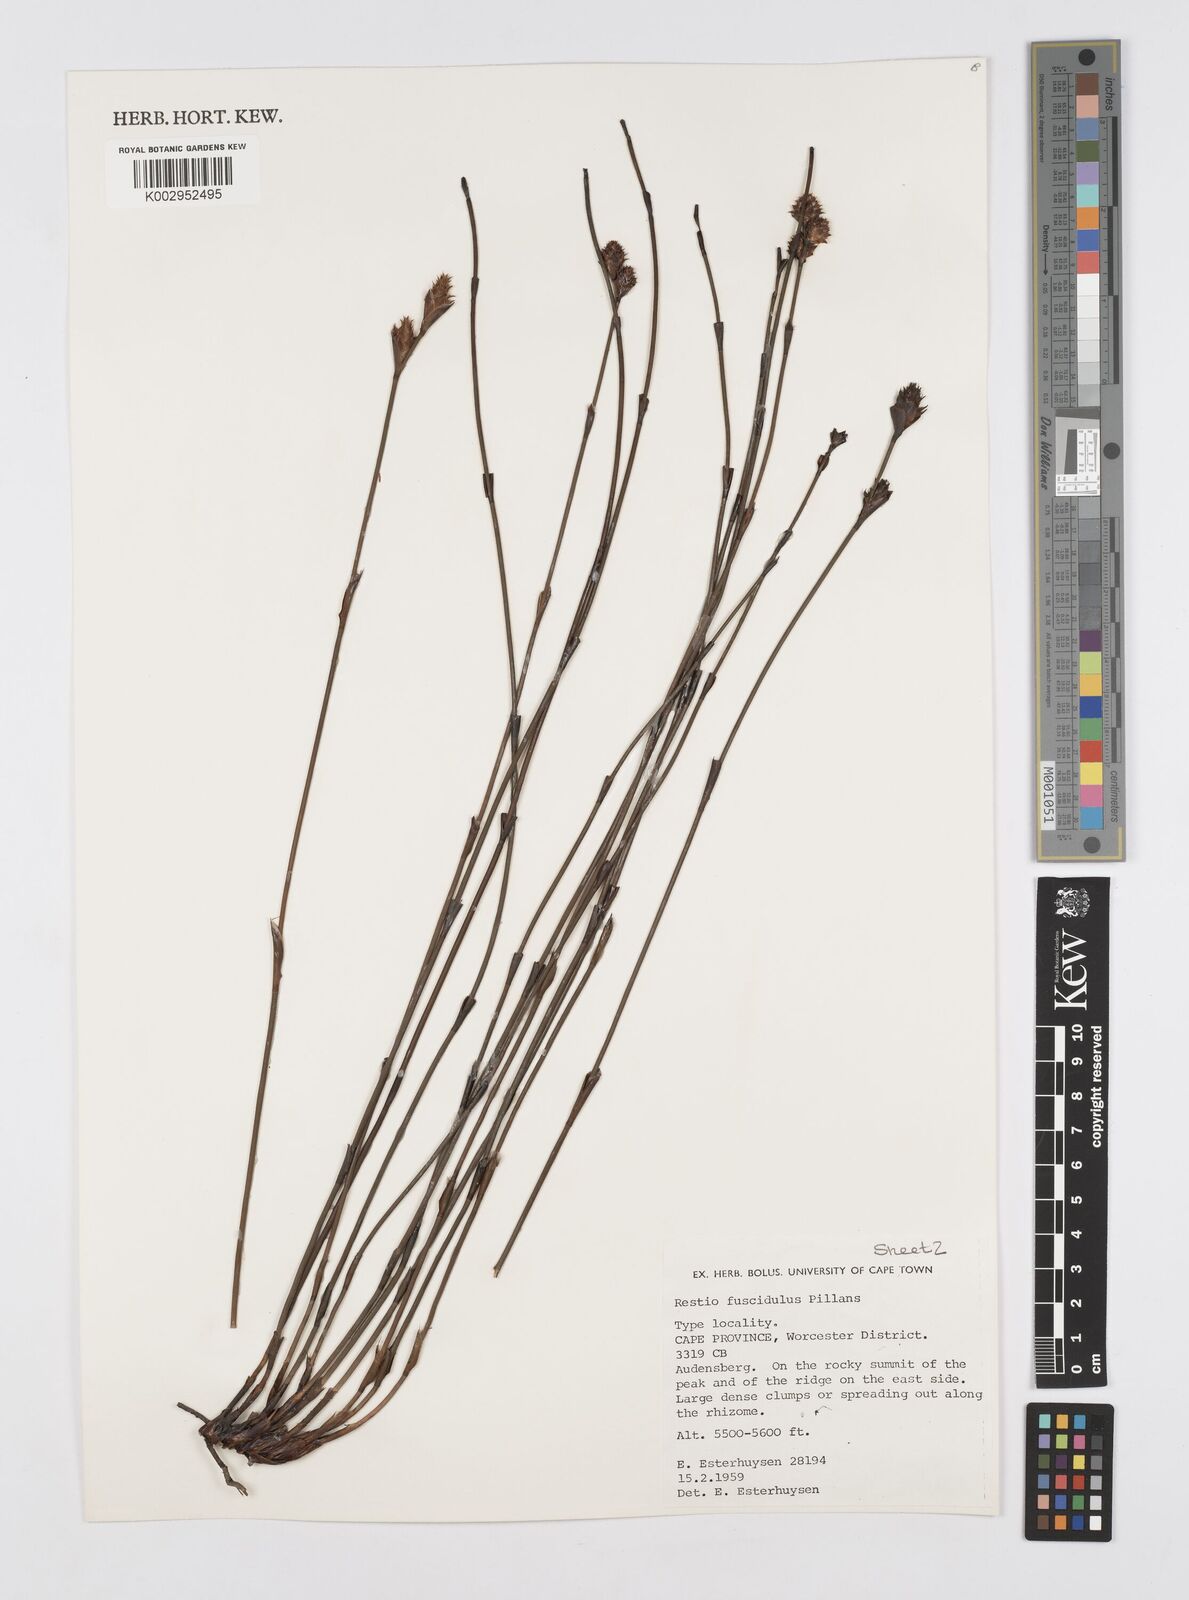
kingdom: Plantae
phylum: Tracheophyta
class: Liliopsida
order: Poales
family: Restionaceae
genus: Restio
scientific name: Restio fuscidulus
